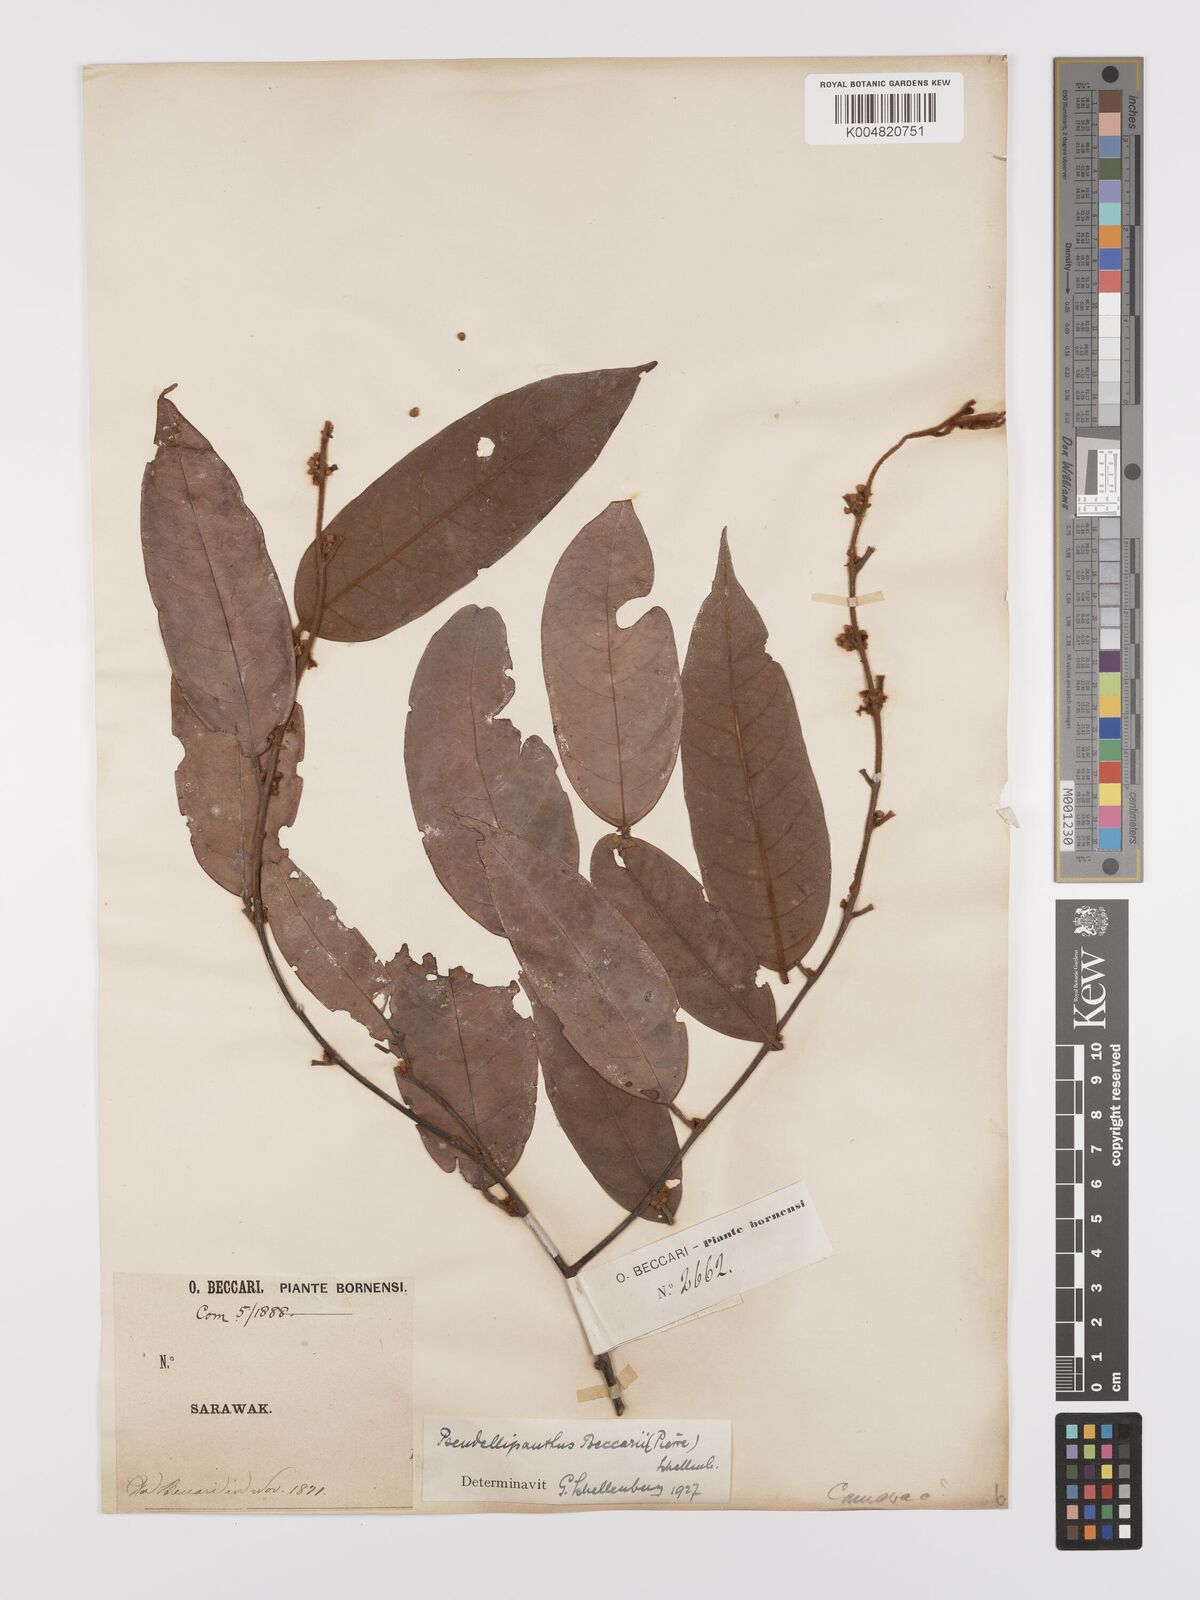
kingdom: Plantae
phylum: Tracheophyta
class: Magnoliopsida
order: Oxalidales
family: Connaraceae
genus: Ellipanthus
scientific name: Ellipanthus beccarii
